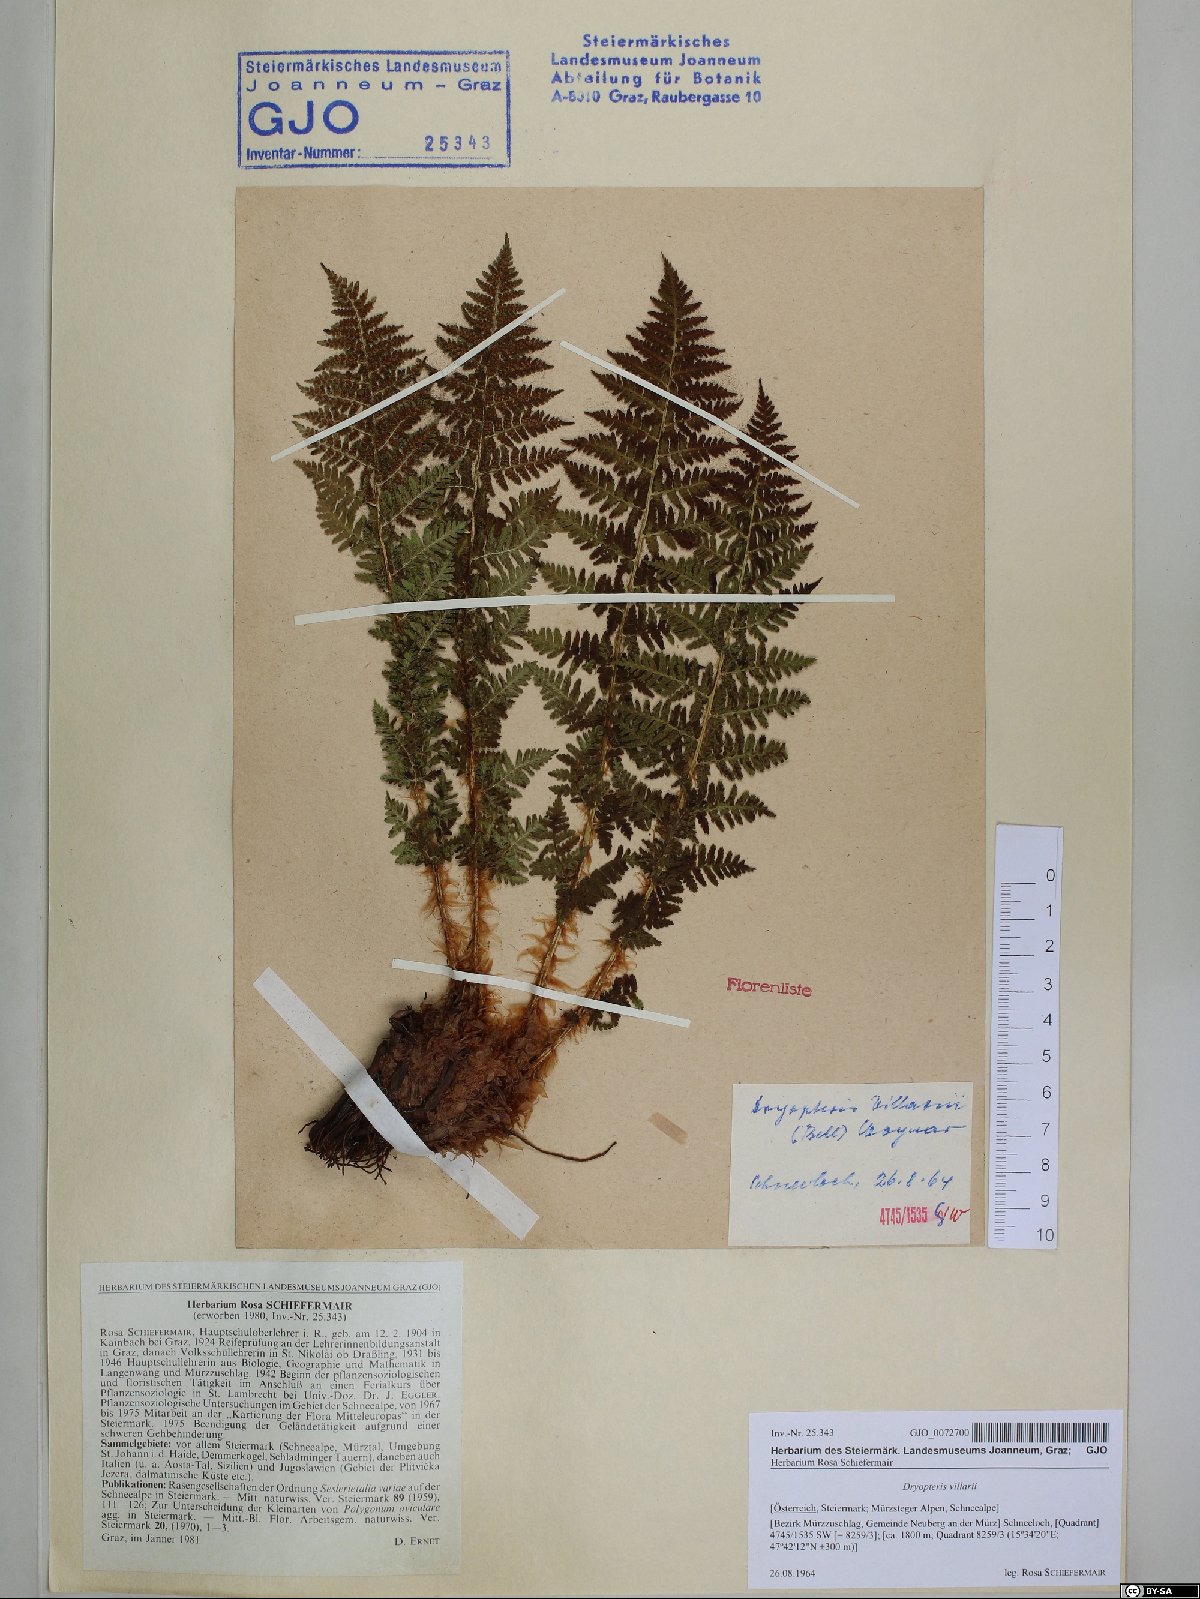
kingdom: Plantae
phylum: Tracheophyta
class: Polypodiopsida
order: Polypodiales
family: Dryopteridaceae
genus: Dryopteris
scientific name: Dryopteris villarii
